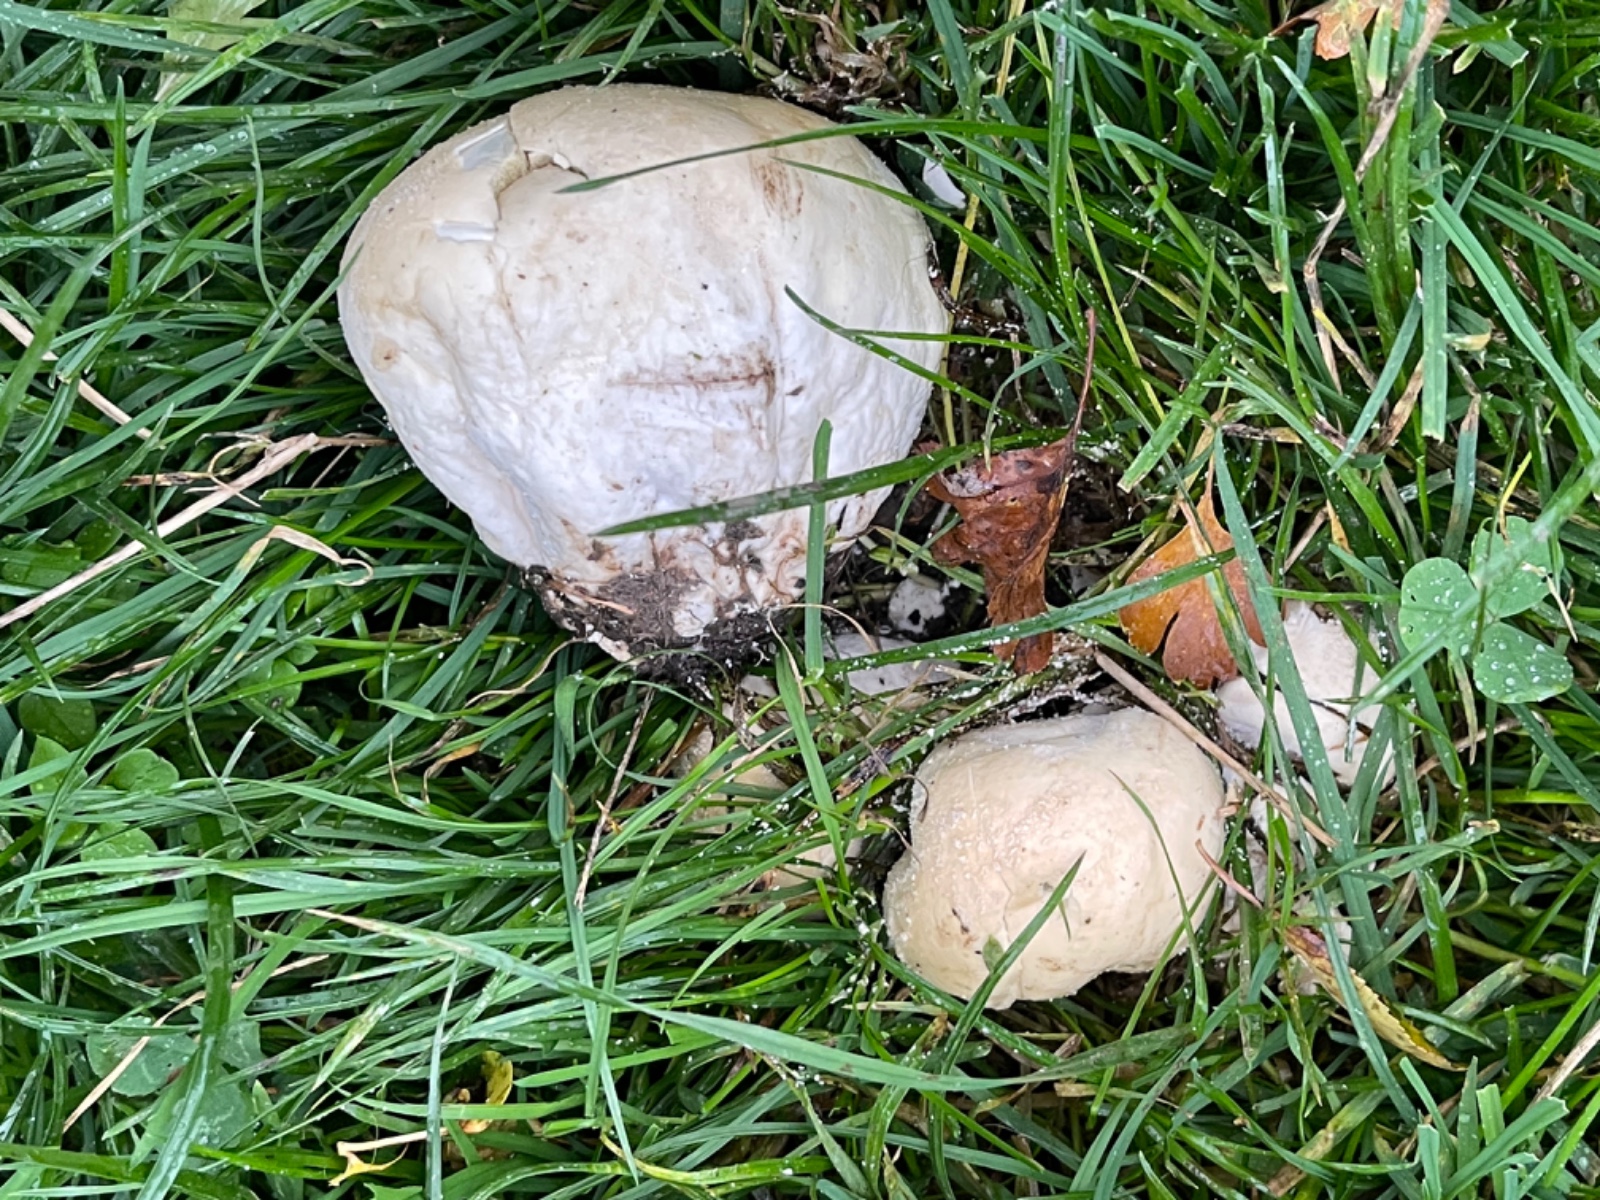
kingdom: Fungi
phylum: Basidiomycota
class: Agaricomycetes
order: Agaricales
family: Lycoperdaceae
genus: Bovistella
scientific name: Bovistella utriformis
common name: skællet støvbold
